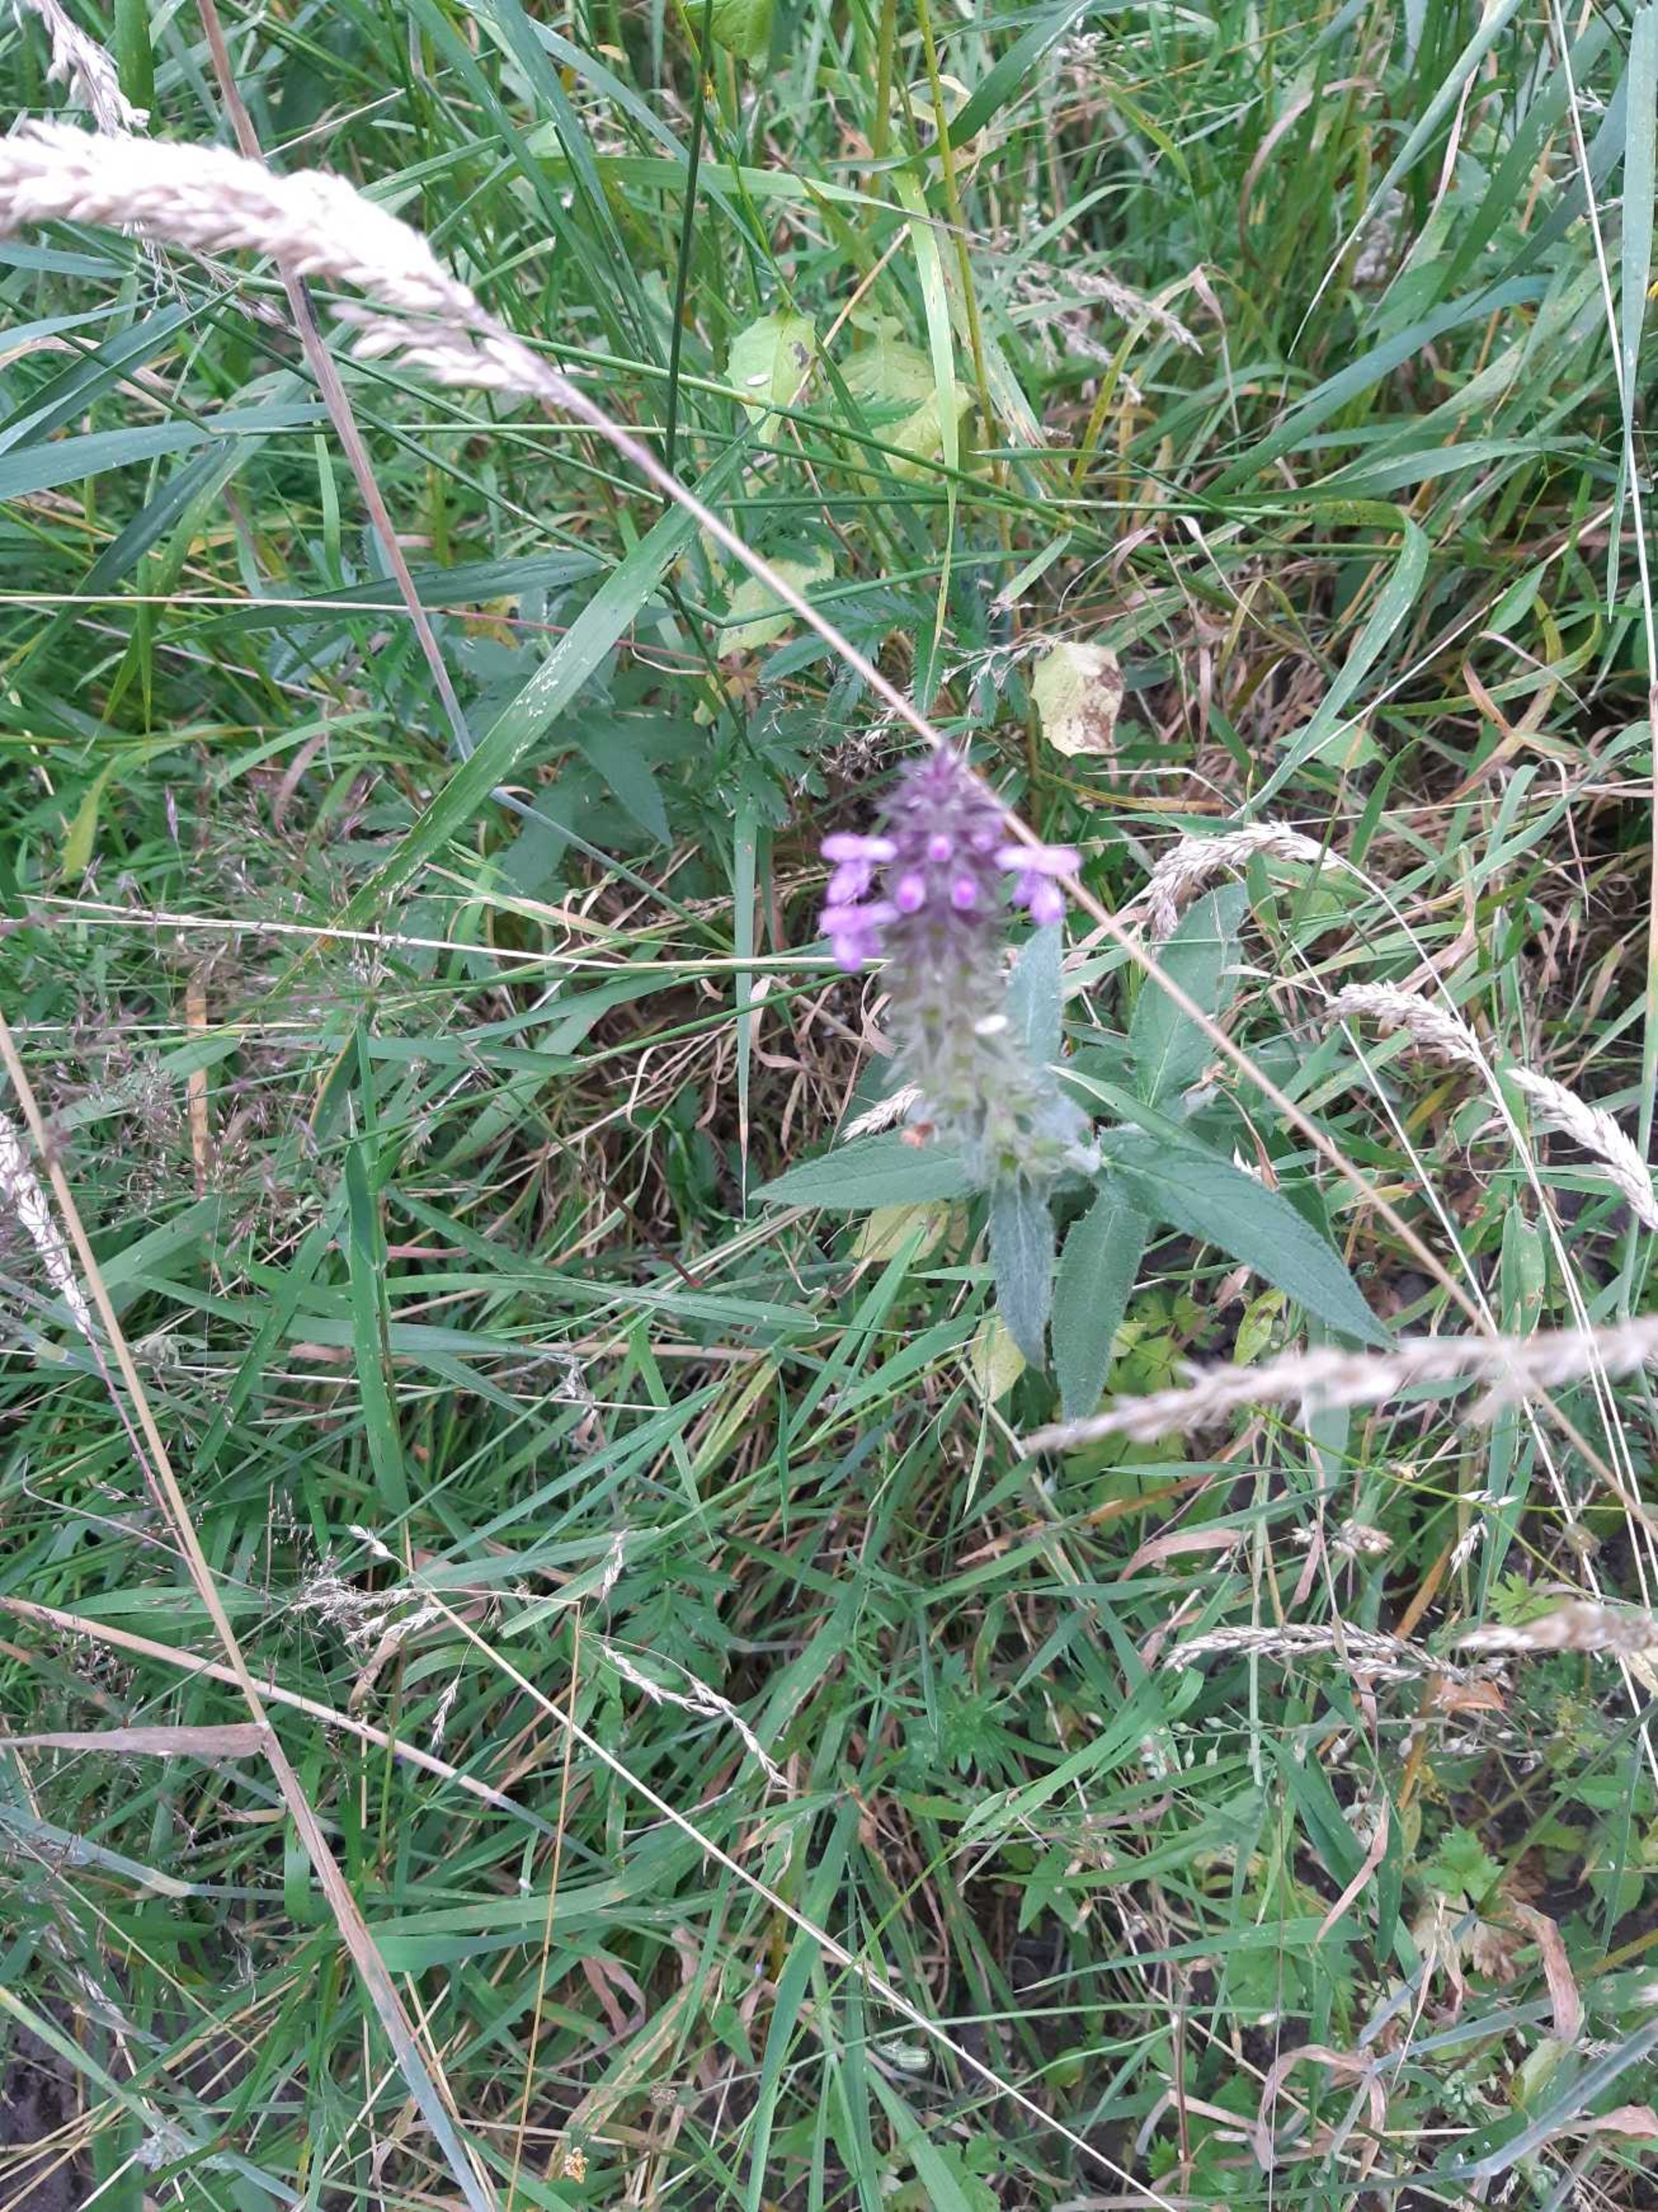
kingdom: Plantae
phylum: Tracheophyta
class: Magnoliopsida
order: Lamiales
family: Lamiaceae
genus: Stachys
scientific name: Stachys palustris
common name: Kær-galtetand
